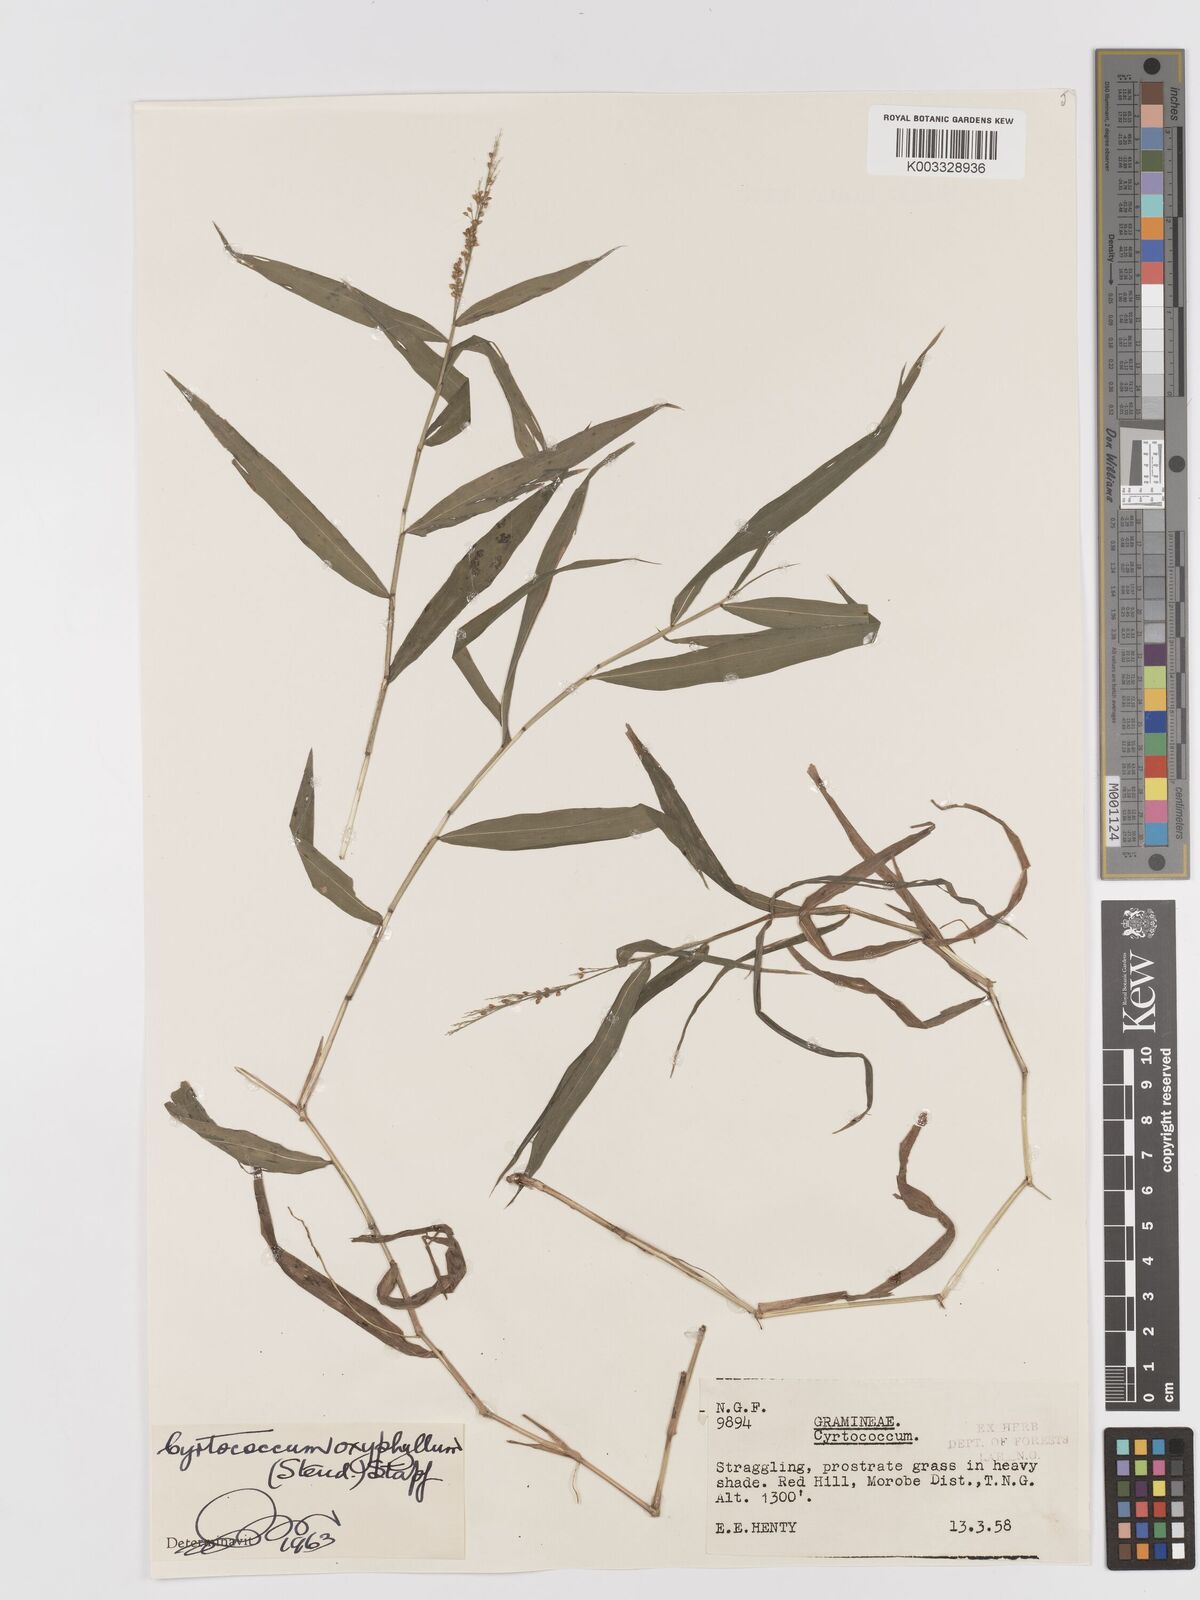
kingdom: Plantae
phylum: Tracheophyta
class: Liliopsida
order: Poales
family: Poaceae
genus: Cyrtococcum
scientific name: Cyrtococcum oxyphyllum
